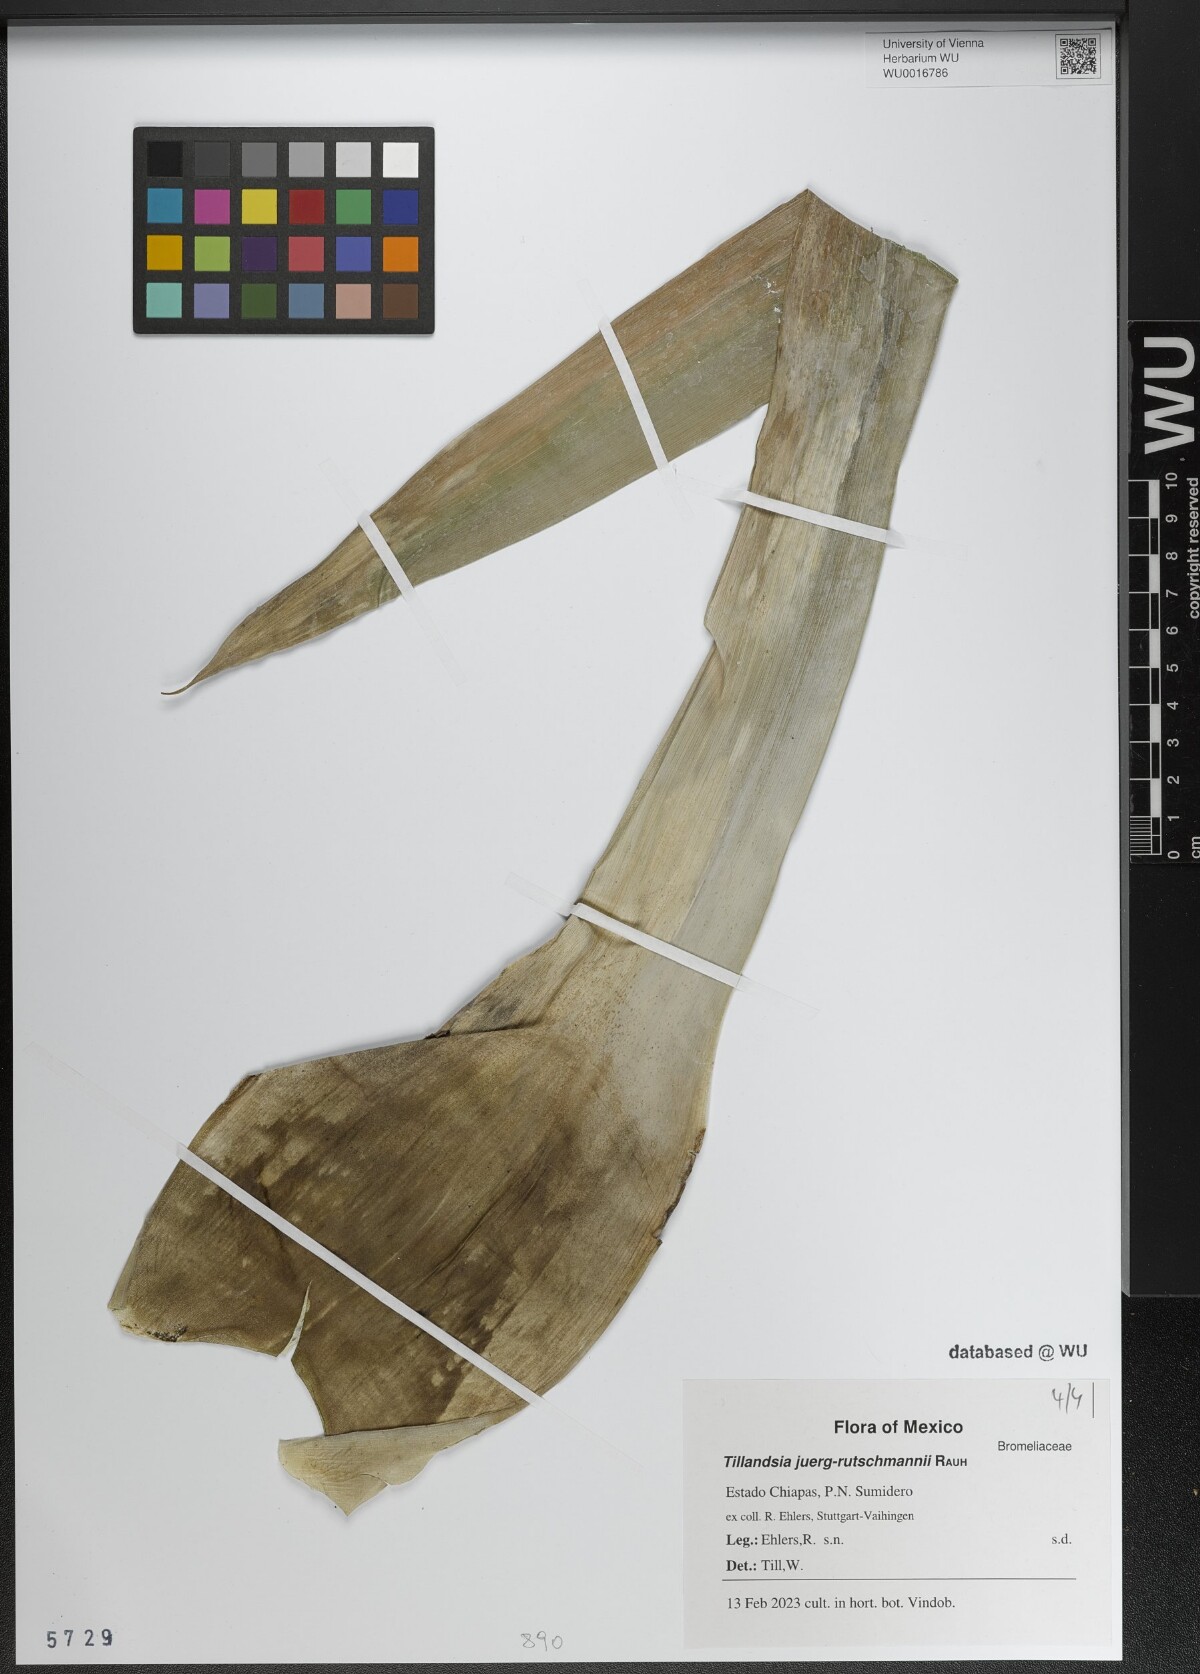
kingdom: Plantae
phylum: Tracheophyta
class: Liliopsida
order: Poales
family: Bromeliaceae
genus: Tillandsia
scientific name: Tillandsia juerg-rutschmannii
